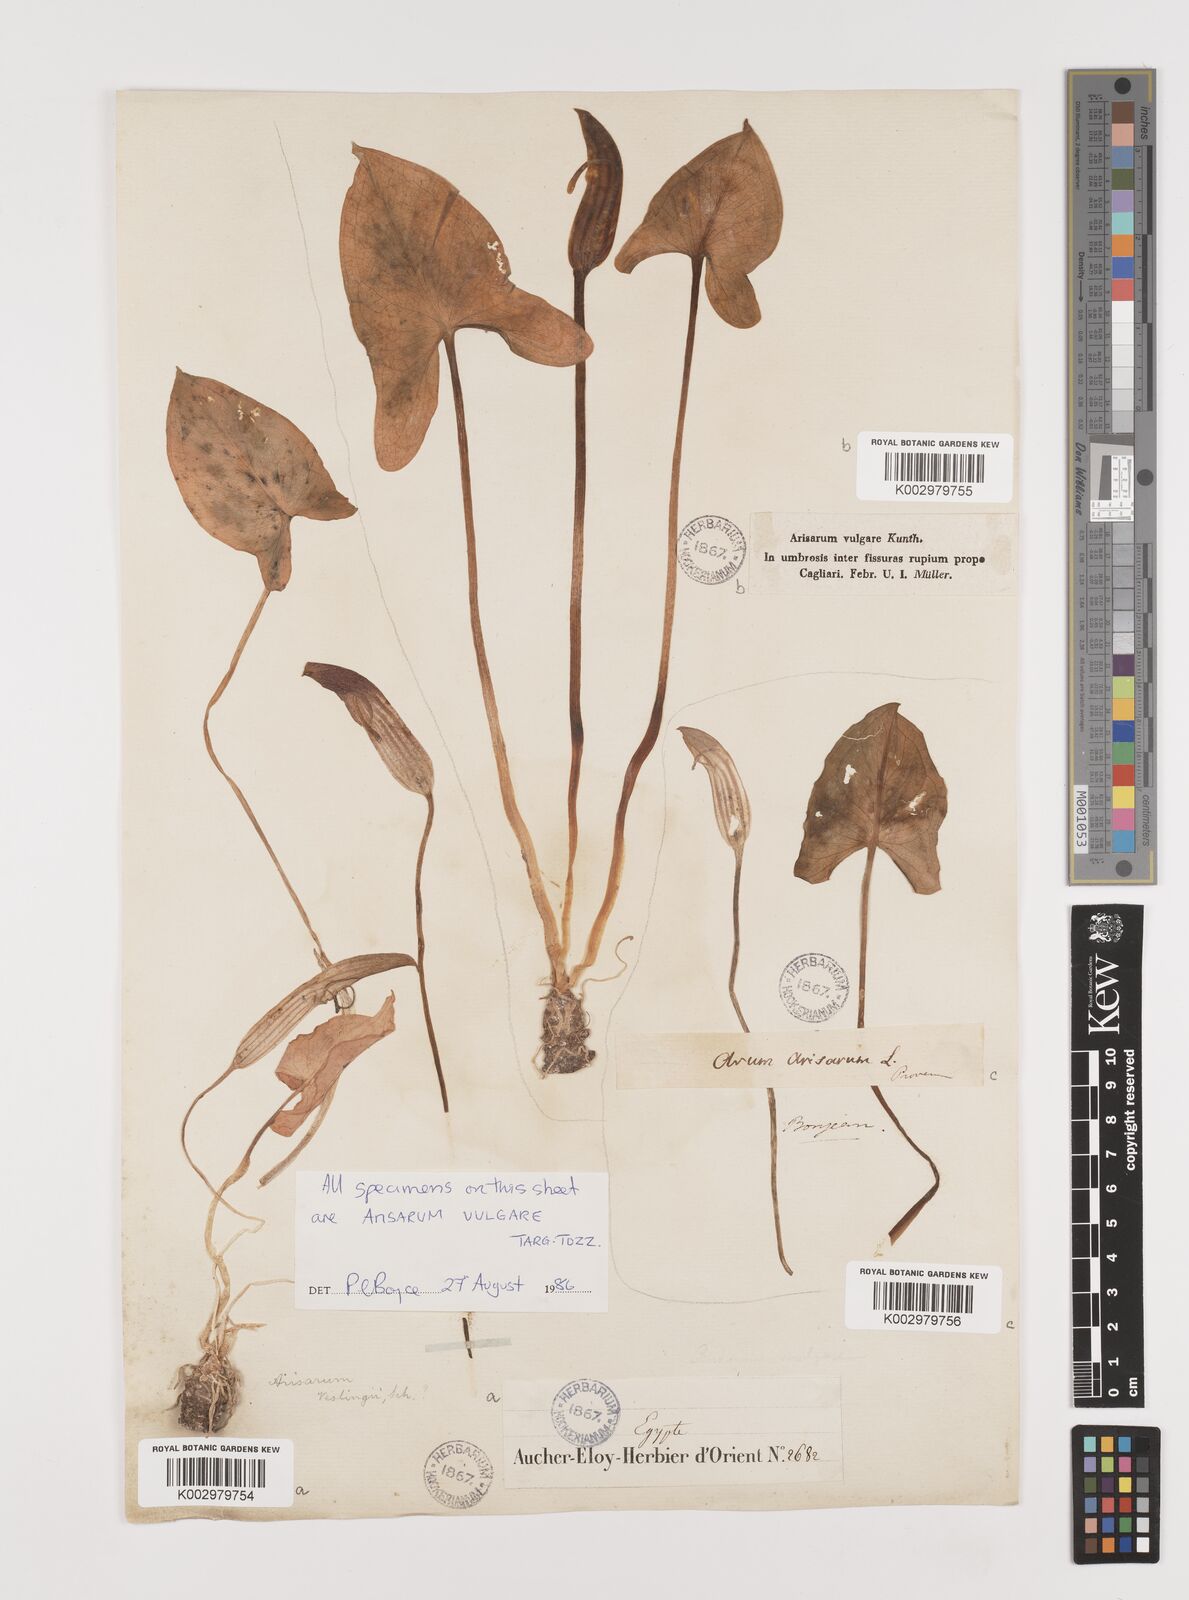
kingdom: Plantae
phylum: Tracheophyta
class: Liliopsida
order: Alismatales
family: Araceae
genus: Arisarum
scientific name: Arisarum vulgare
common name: Common arisarum
